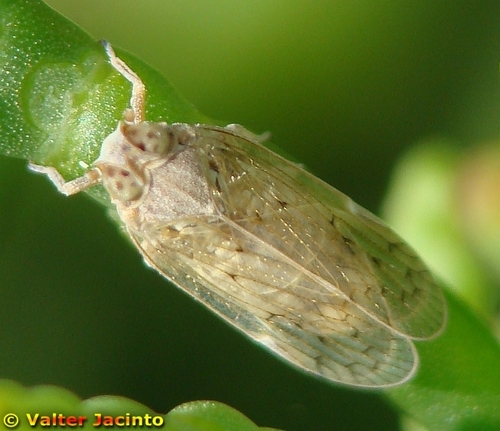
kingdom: Animalia
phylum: Arthropoda
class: Insecta
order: Hemiptera
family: Cixiidae
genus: Duilius
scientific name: Duilius
